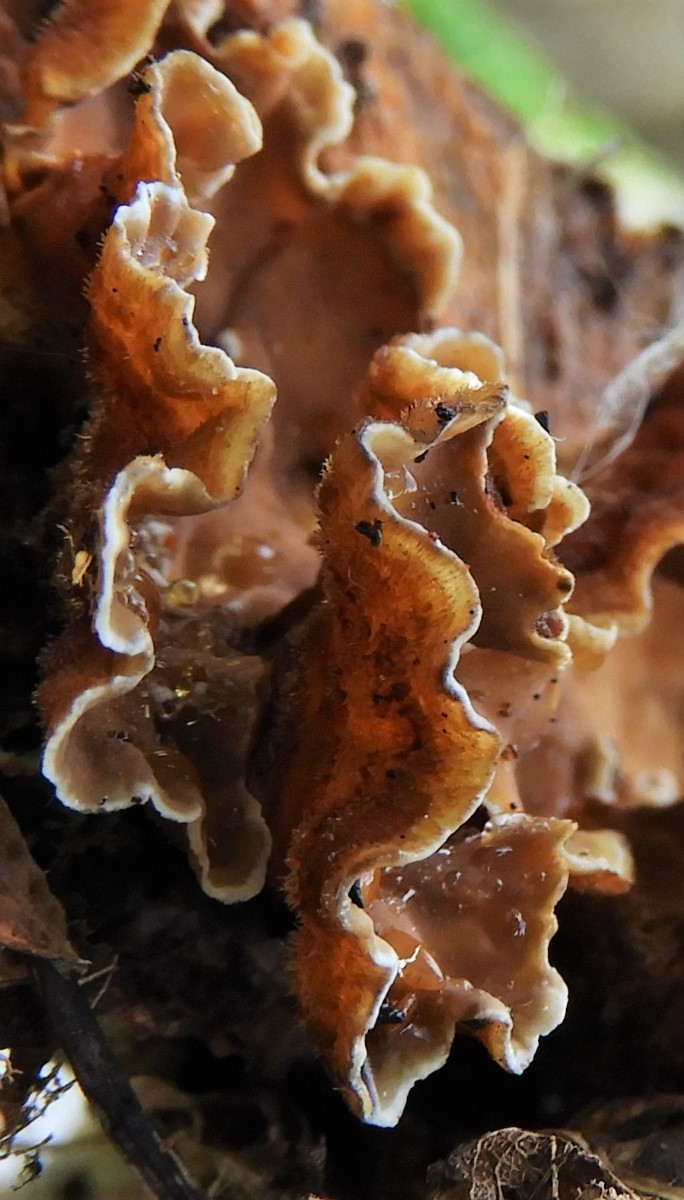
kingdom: Fungi
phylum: Basidiomycota
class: Agaricomycetes
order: Russulales
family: Stereaceae
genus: Stereum
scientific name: Stereum hirsutum
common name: håret lædersvamp
